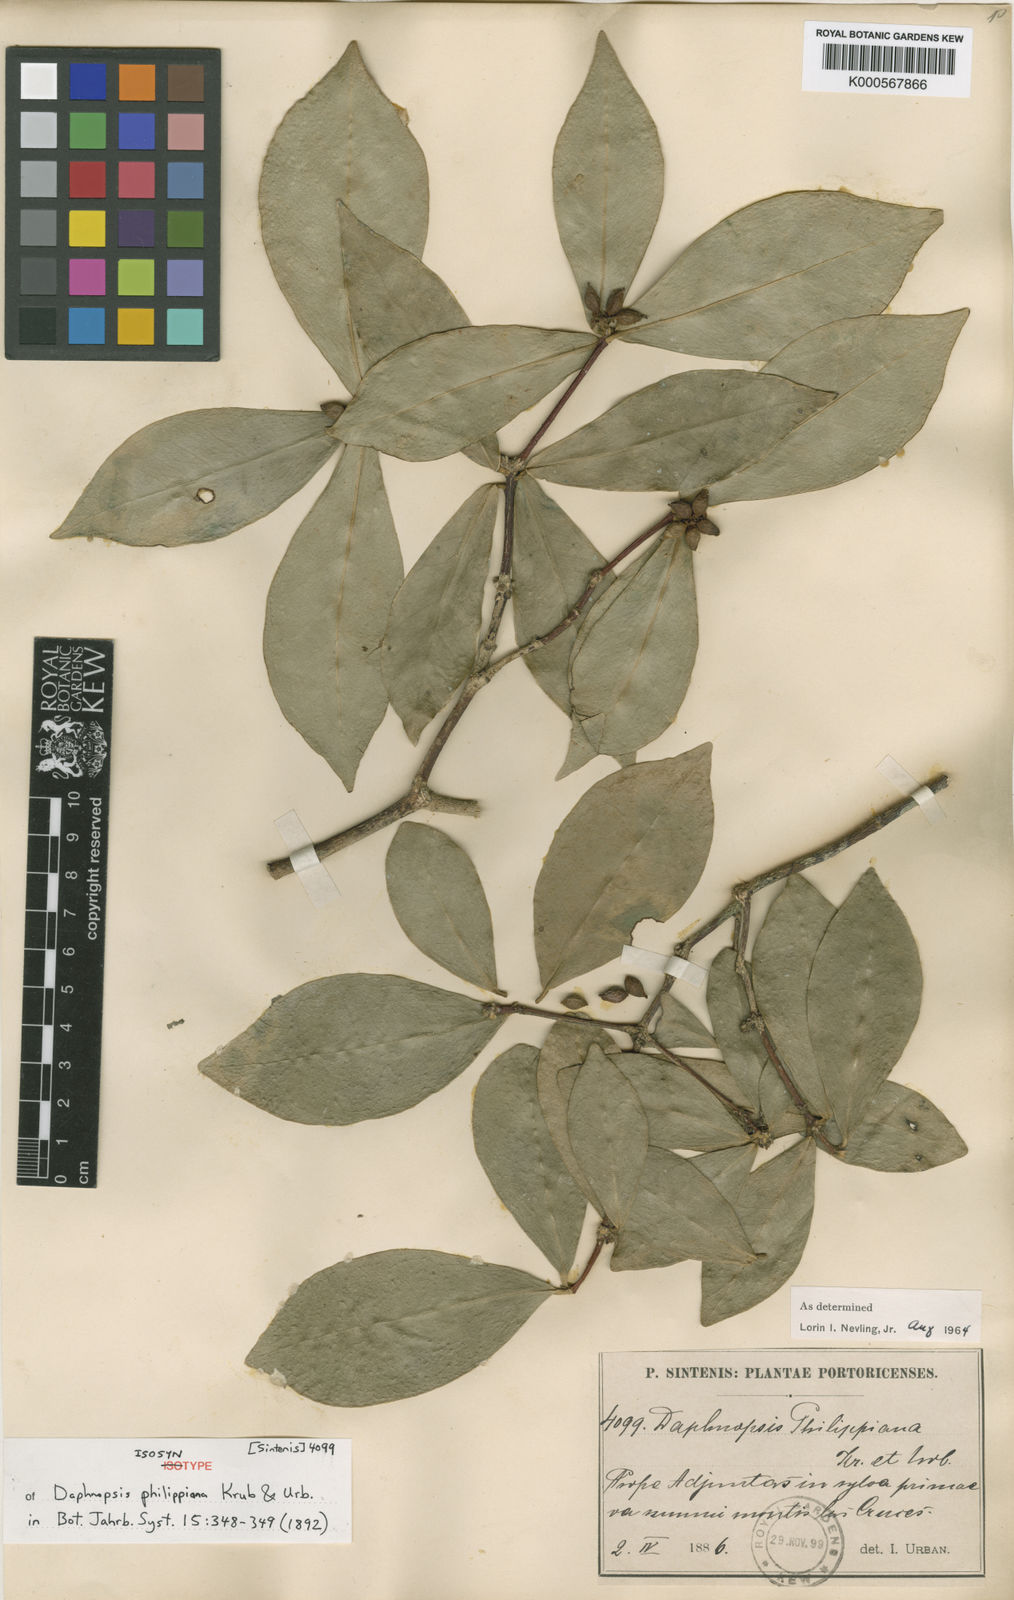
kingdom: Plantae
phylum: Tracheophyta
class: Magnoliopsida
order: Malvales
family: Thymelaeaceae
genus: Daphnopsis
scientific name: Daphnopsis philippiana
